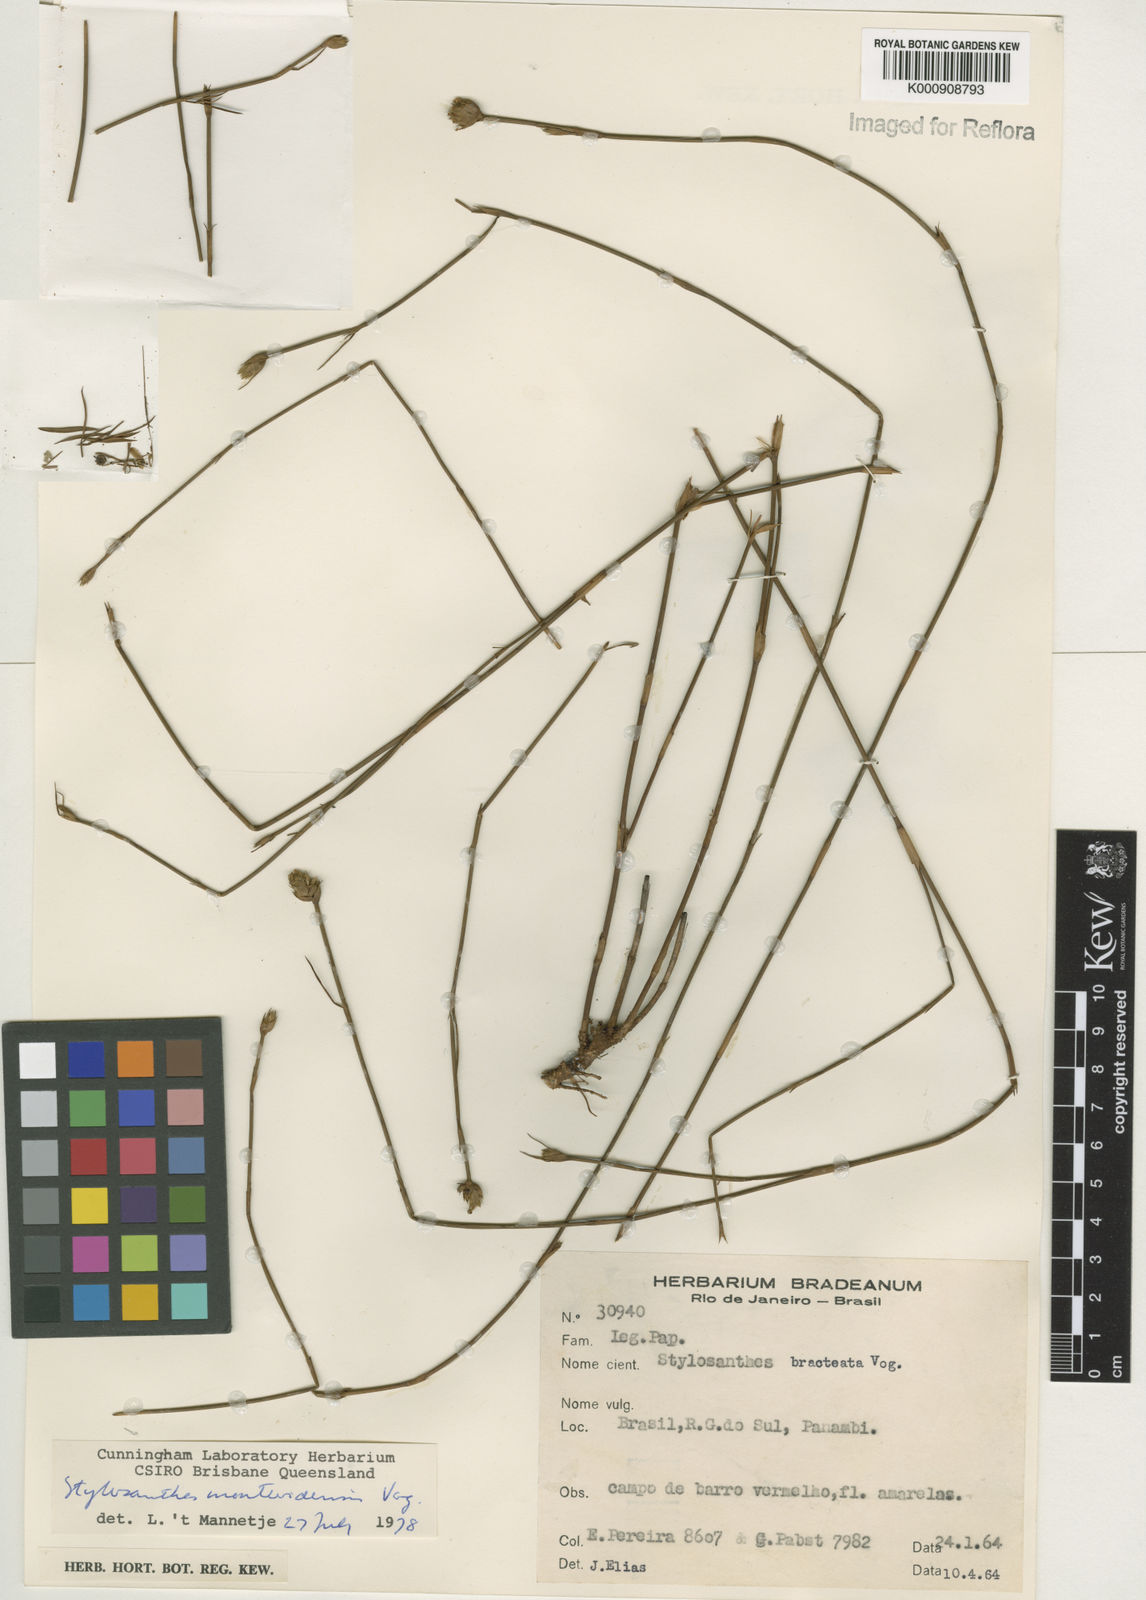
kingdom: Plantae
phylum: Tracheophyta
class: Magnoliopsida
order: Fabales
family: Fabaceae
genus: Stylosanthes
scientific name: Stylosanthes montevidensis
